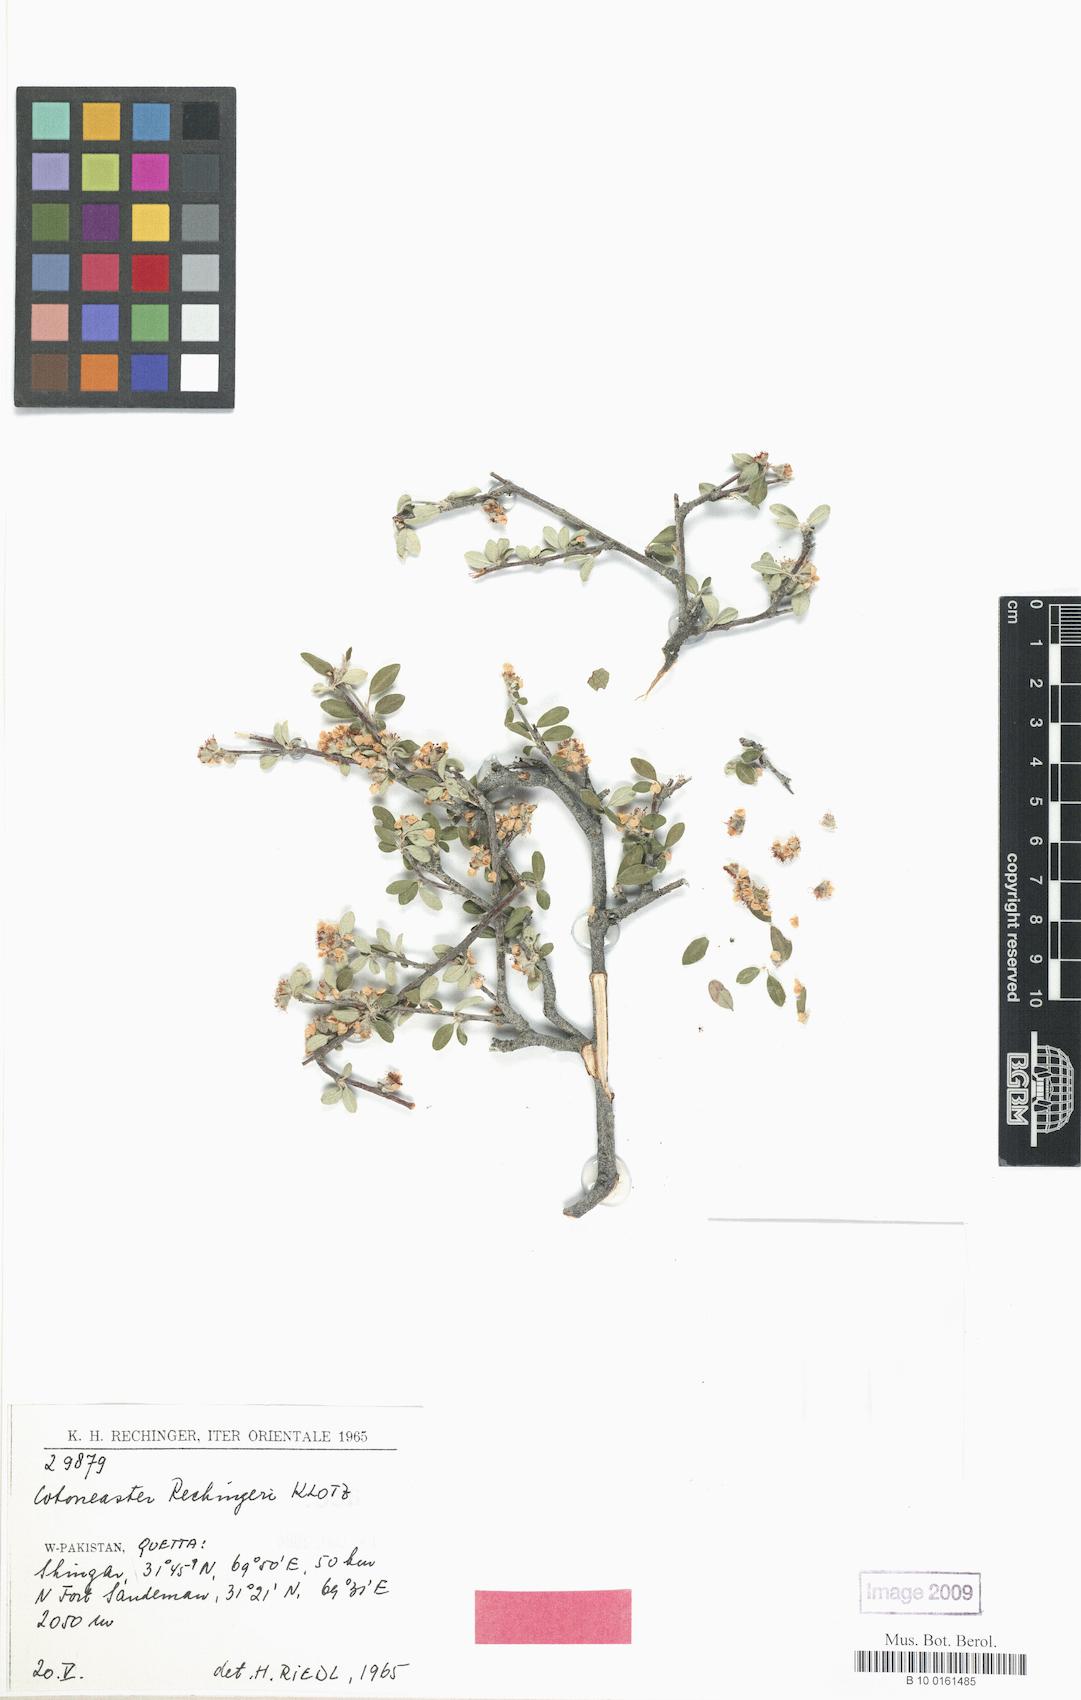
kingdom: Plantae
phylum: Tracheophyta
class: Magnoliopsida
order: Rosales
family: Rosaceae
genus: Cotoneaster
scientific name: Cotoneaster persicus
